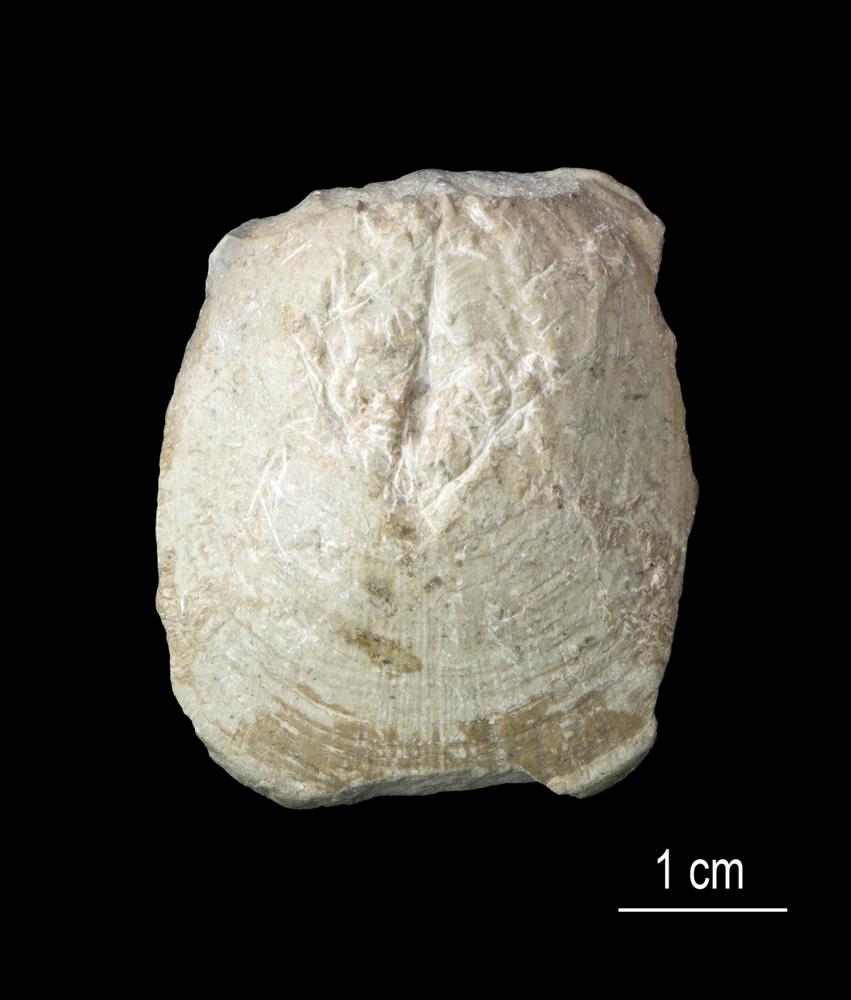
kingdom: Animalia
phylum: Brachiopoda
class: Lingulata
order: Lingulida
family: Pseudolingulidae
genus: Pseudolingula
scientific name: Pseudolingula
